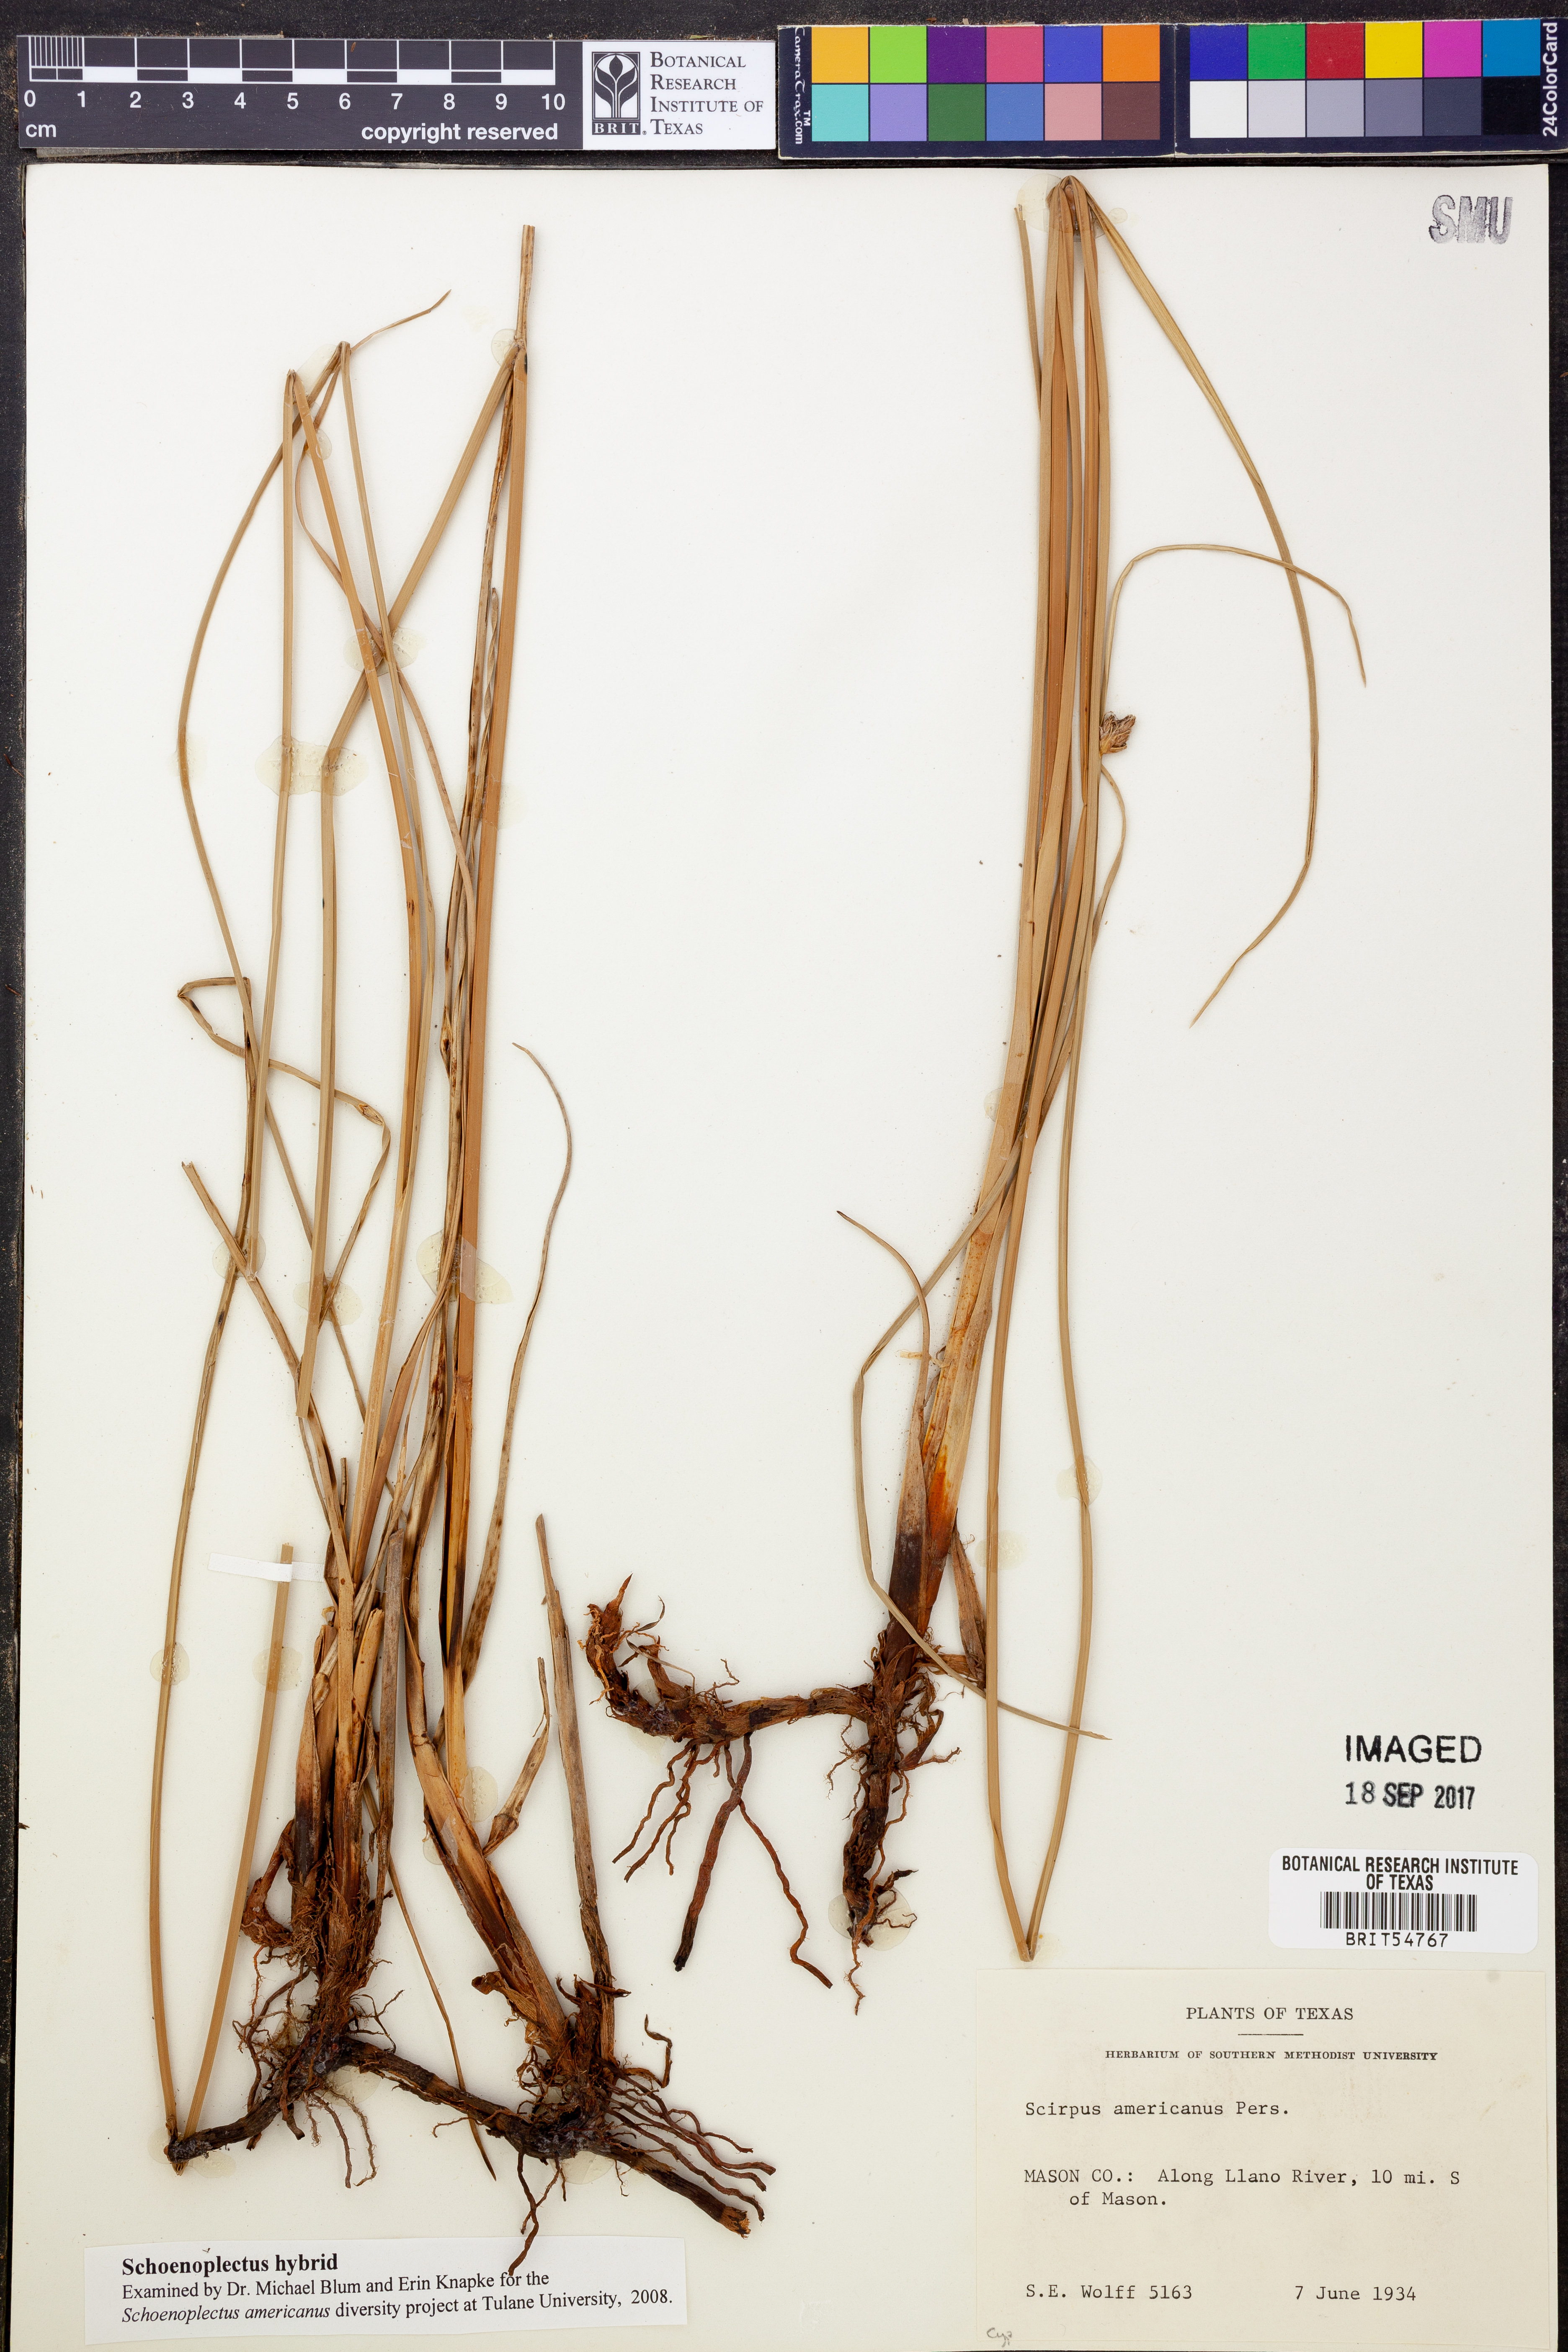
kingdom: Plantae
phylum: Tracheophyta
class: Liliopsida
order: Poales
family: Cyperaceae
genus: Schoenoplectus
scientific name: Schoenoplectus
